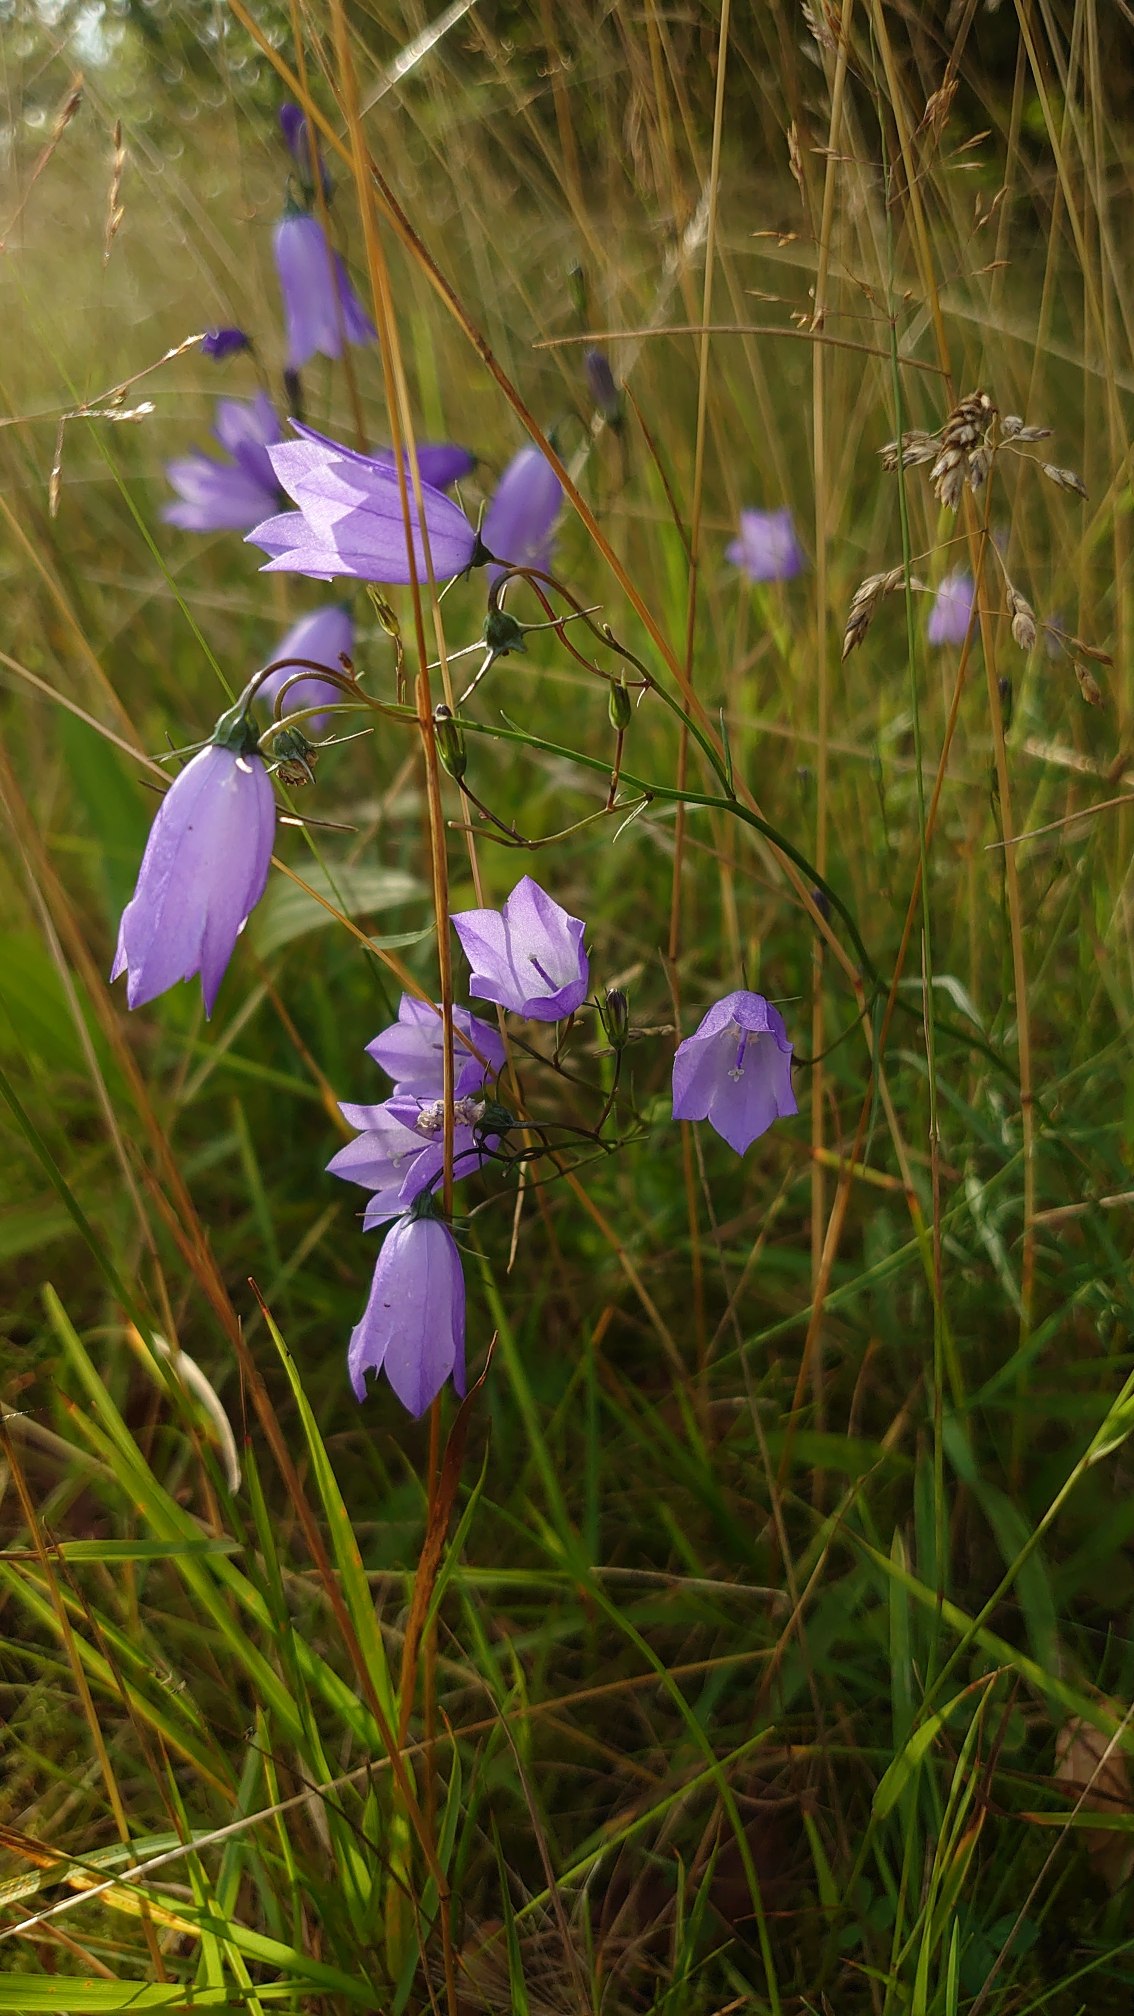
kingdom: Plantae
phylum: Tracheophyta
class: Magnoliopsida
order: Asterales
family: Campanulaceae
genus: Campanula
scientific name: Campanula rotundifolia
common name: Liden klokke
